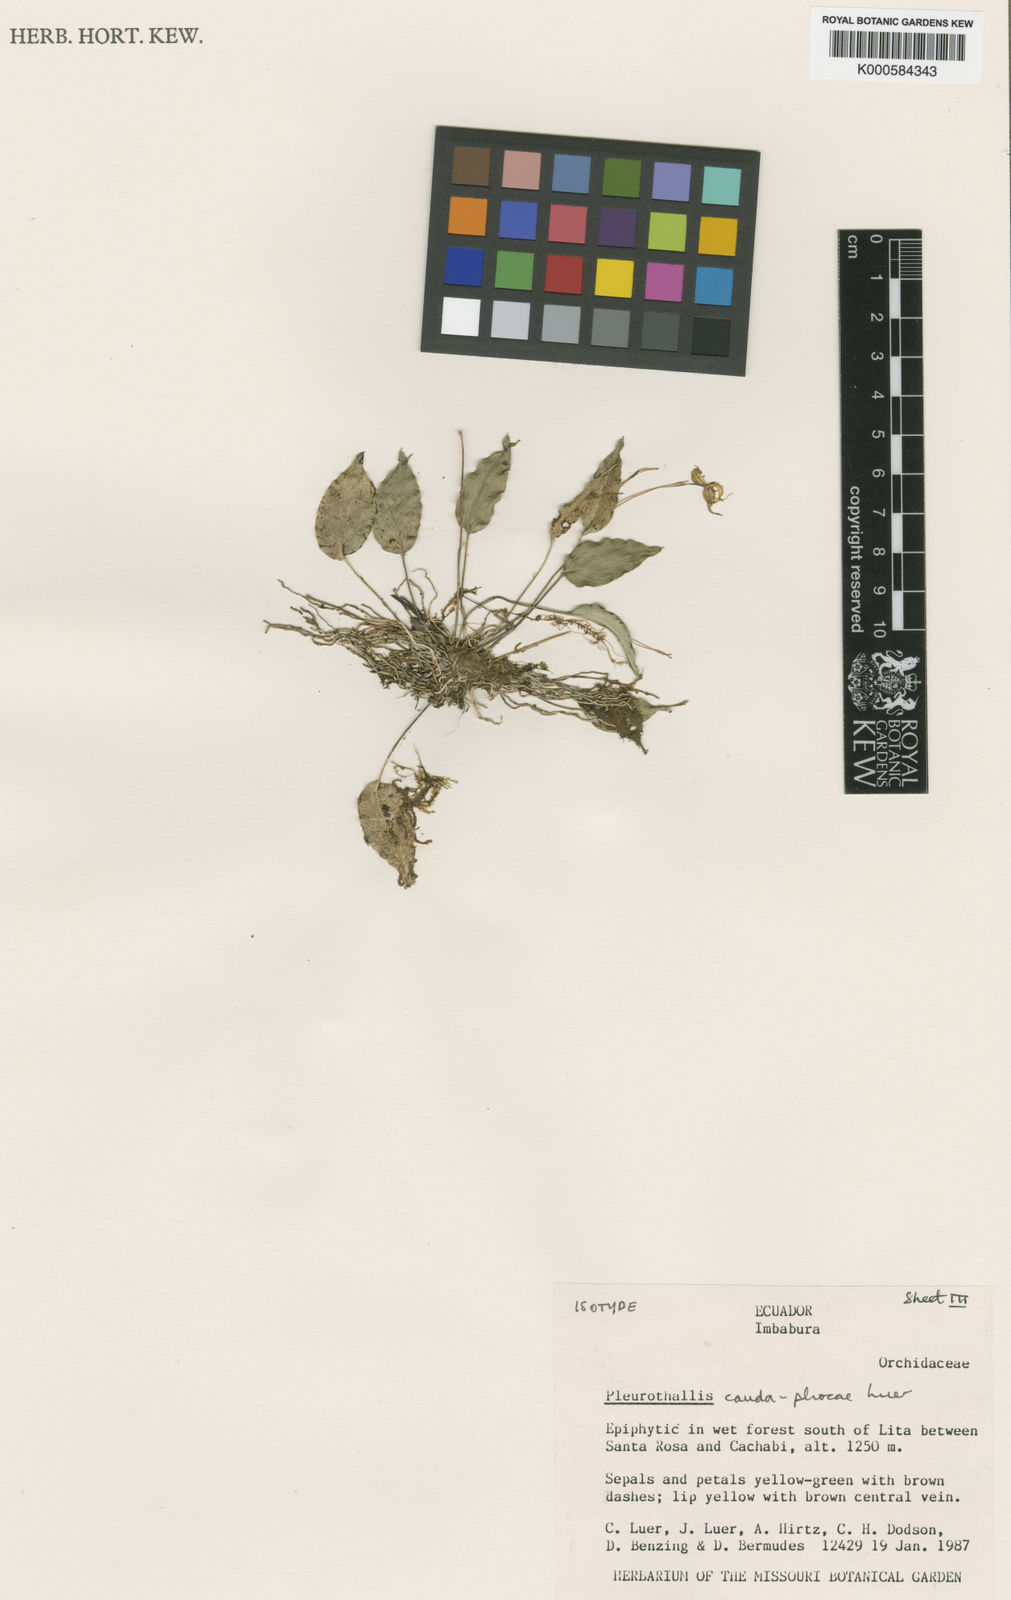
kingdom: Plantae
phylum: Tracheophyta
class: Liliopsida
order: Asparagales
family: Orchidaceae
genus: Lepanthes
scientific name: Lepanthes
